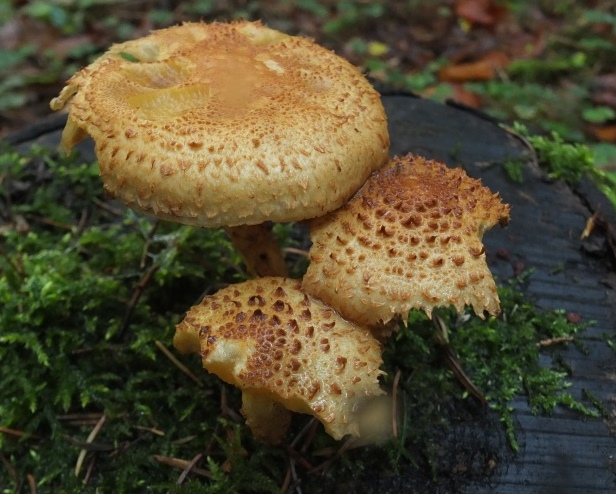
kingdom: Fungi
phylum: Basidiomycota
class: Agaricomycetes
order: Agaricales
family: Strophariaceae
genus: Pholiota
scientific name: Pholiota squarrosa
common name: krumskællet skælhat
